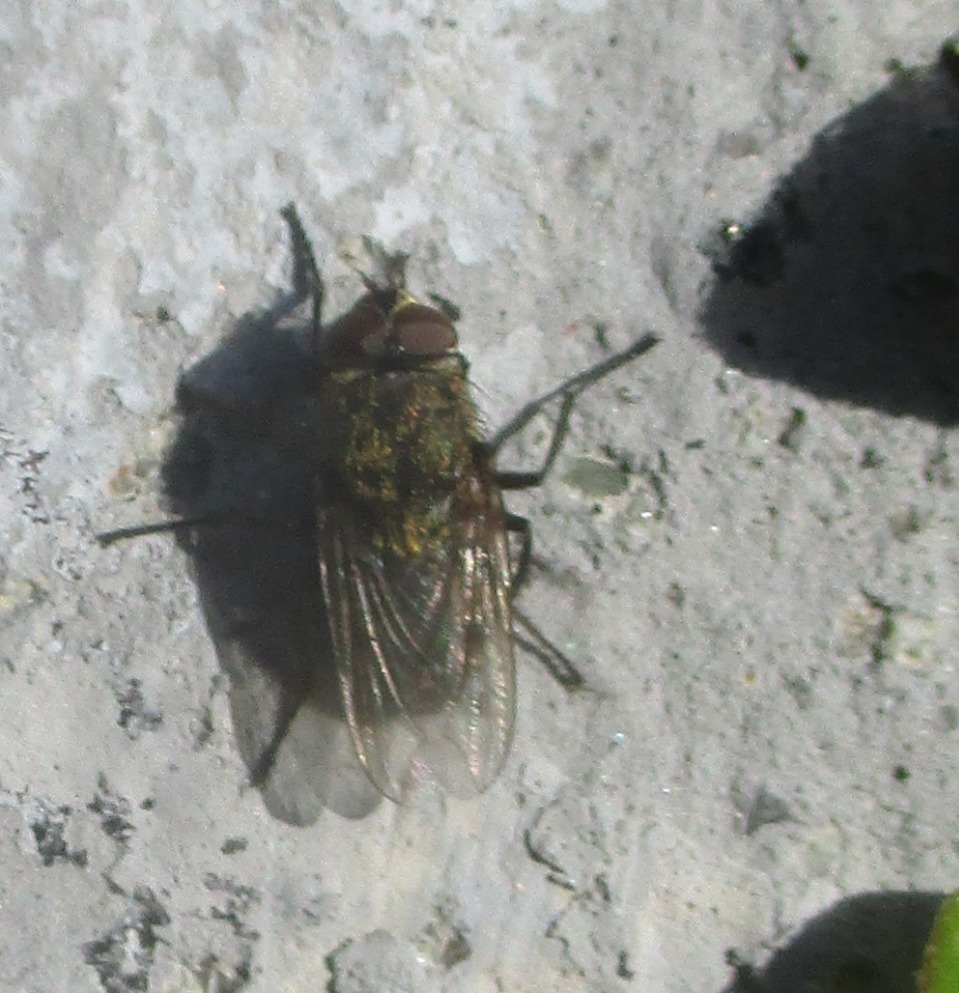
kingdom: Animalia
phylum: Arthropoda
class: Insecta
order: Diptera
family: Polleniidae
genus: Pollenia
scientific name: Pollenia
